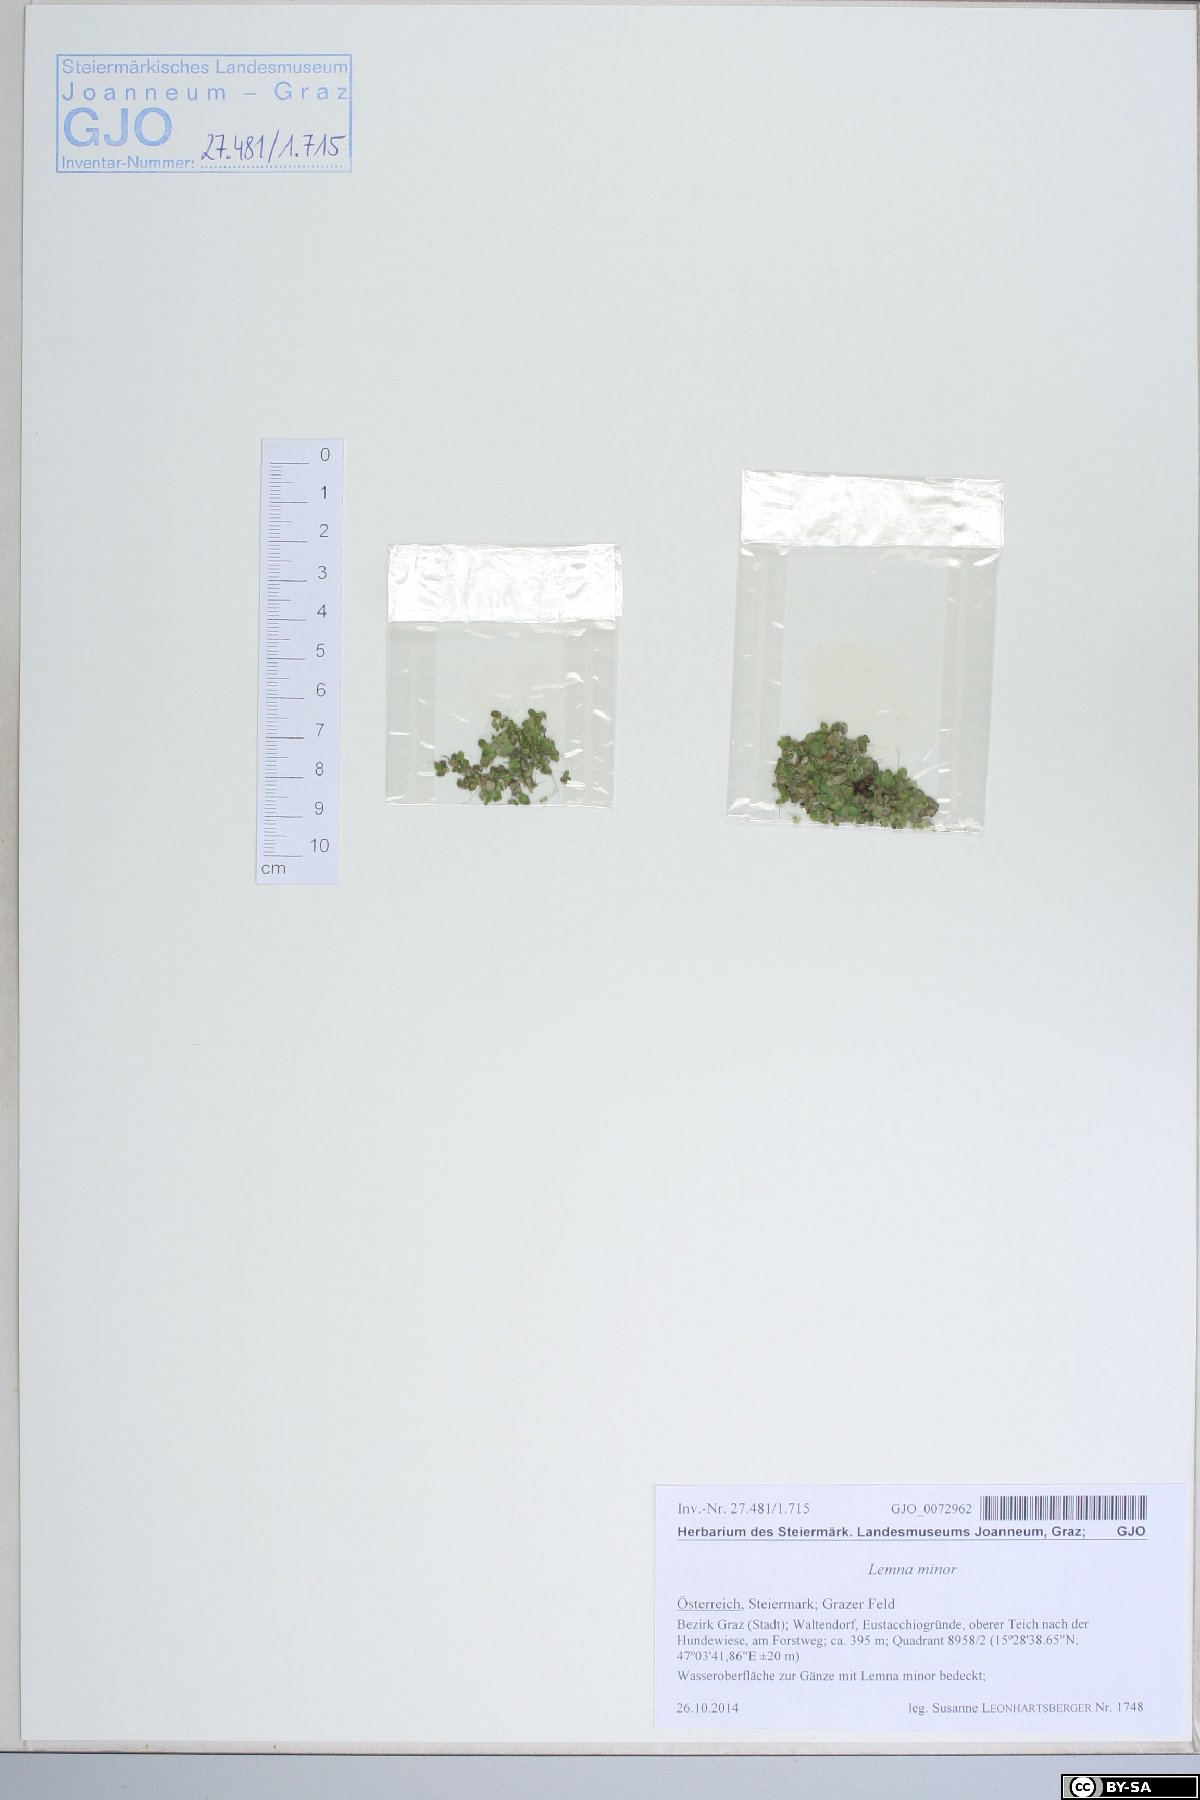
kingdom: Plantae
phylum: Tracheophyta
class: Liliopsida
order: Alismatales
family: Araceae
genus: Lemna
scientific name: Lemna minor
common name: Common duckweed
